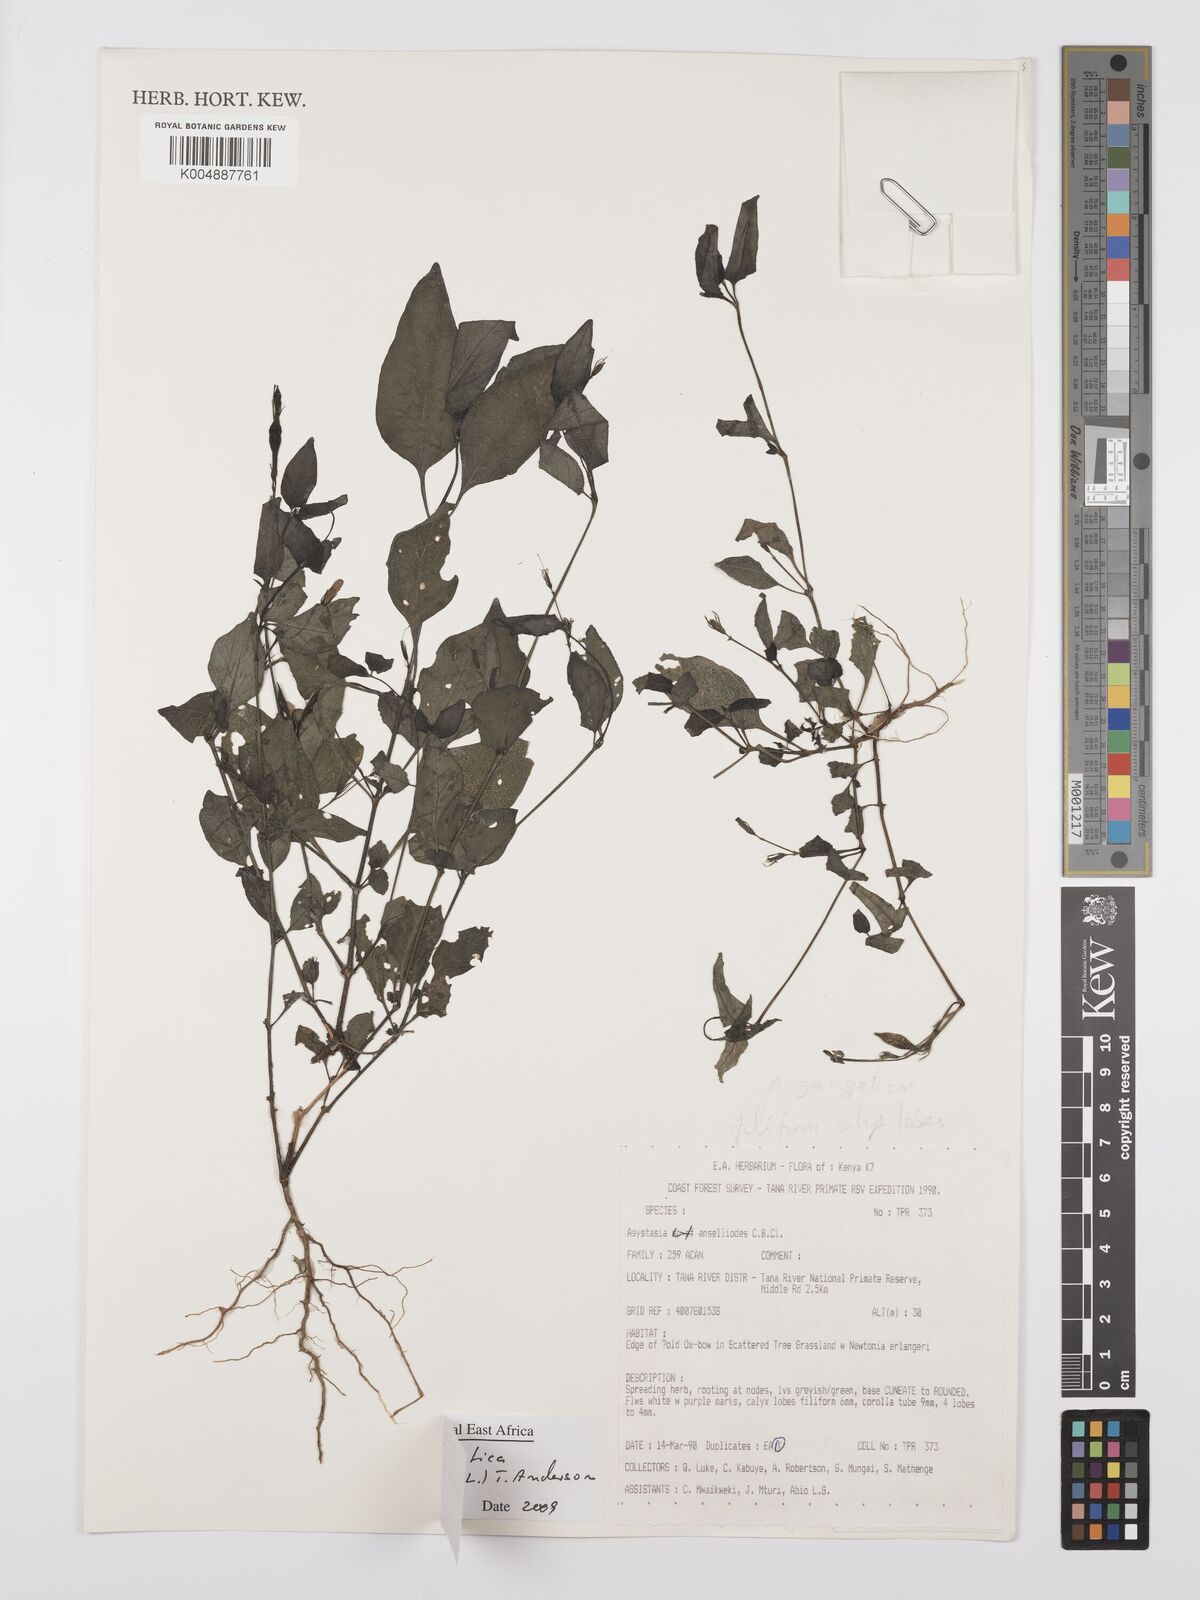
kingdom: Plantae
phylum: Tracheophyta
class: Magnoliopsida
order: Lamiales
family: Acanthaceae
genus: Asystasia
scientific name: Asystasia gangetica
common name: Chinese violet
